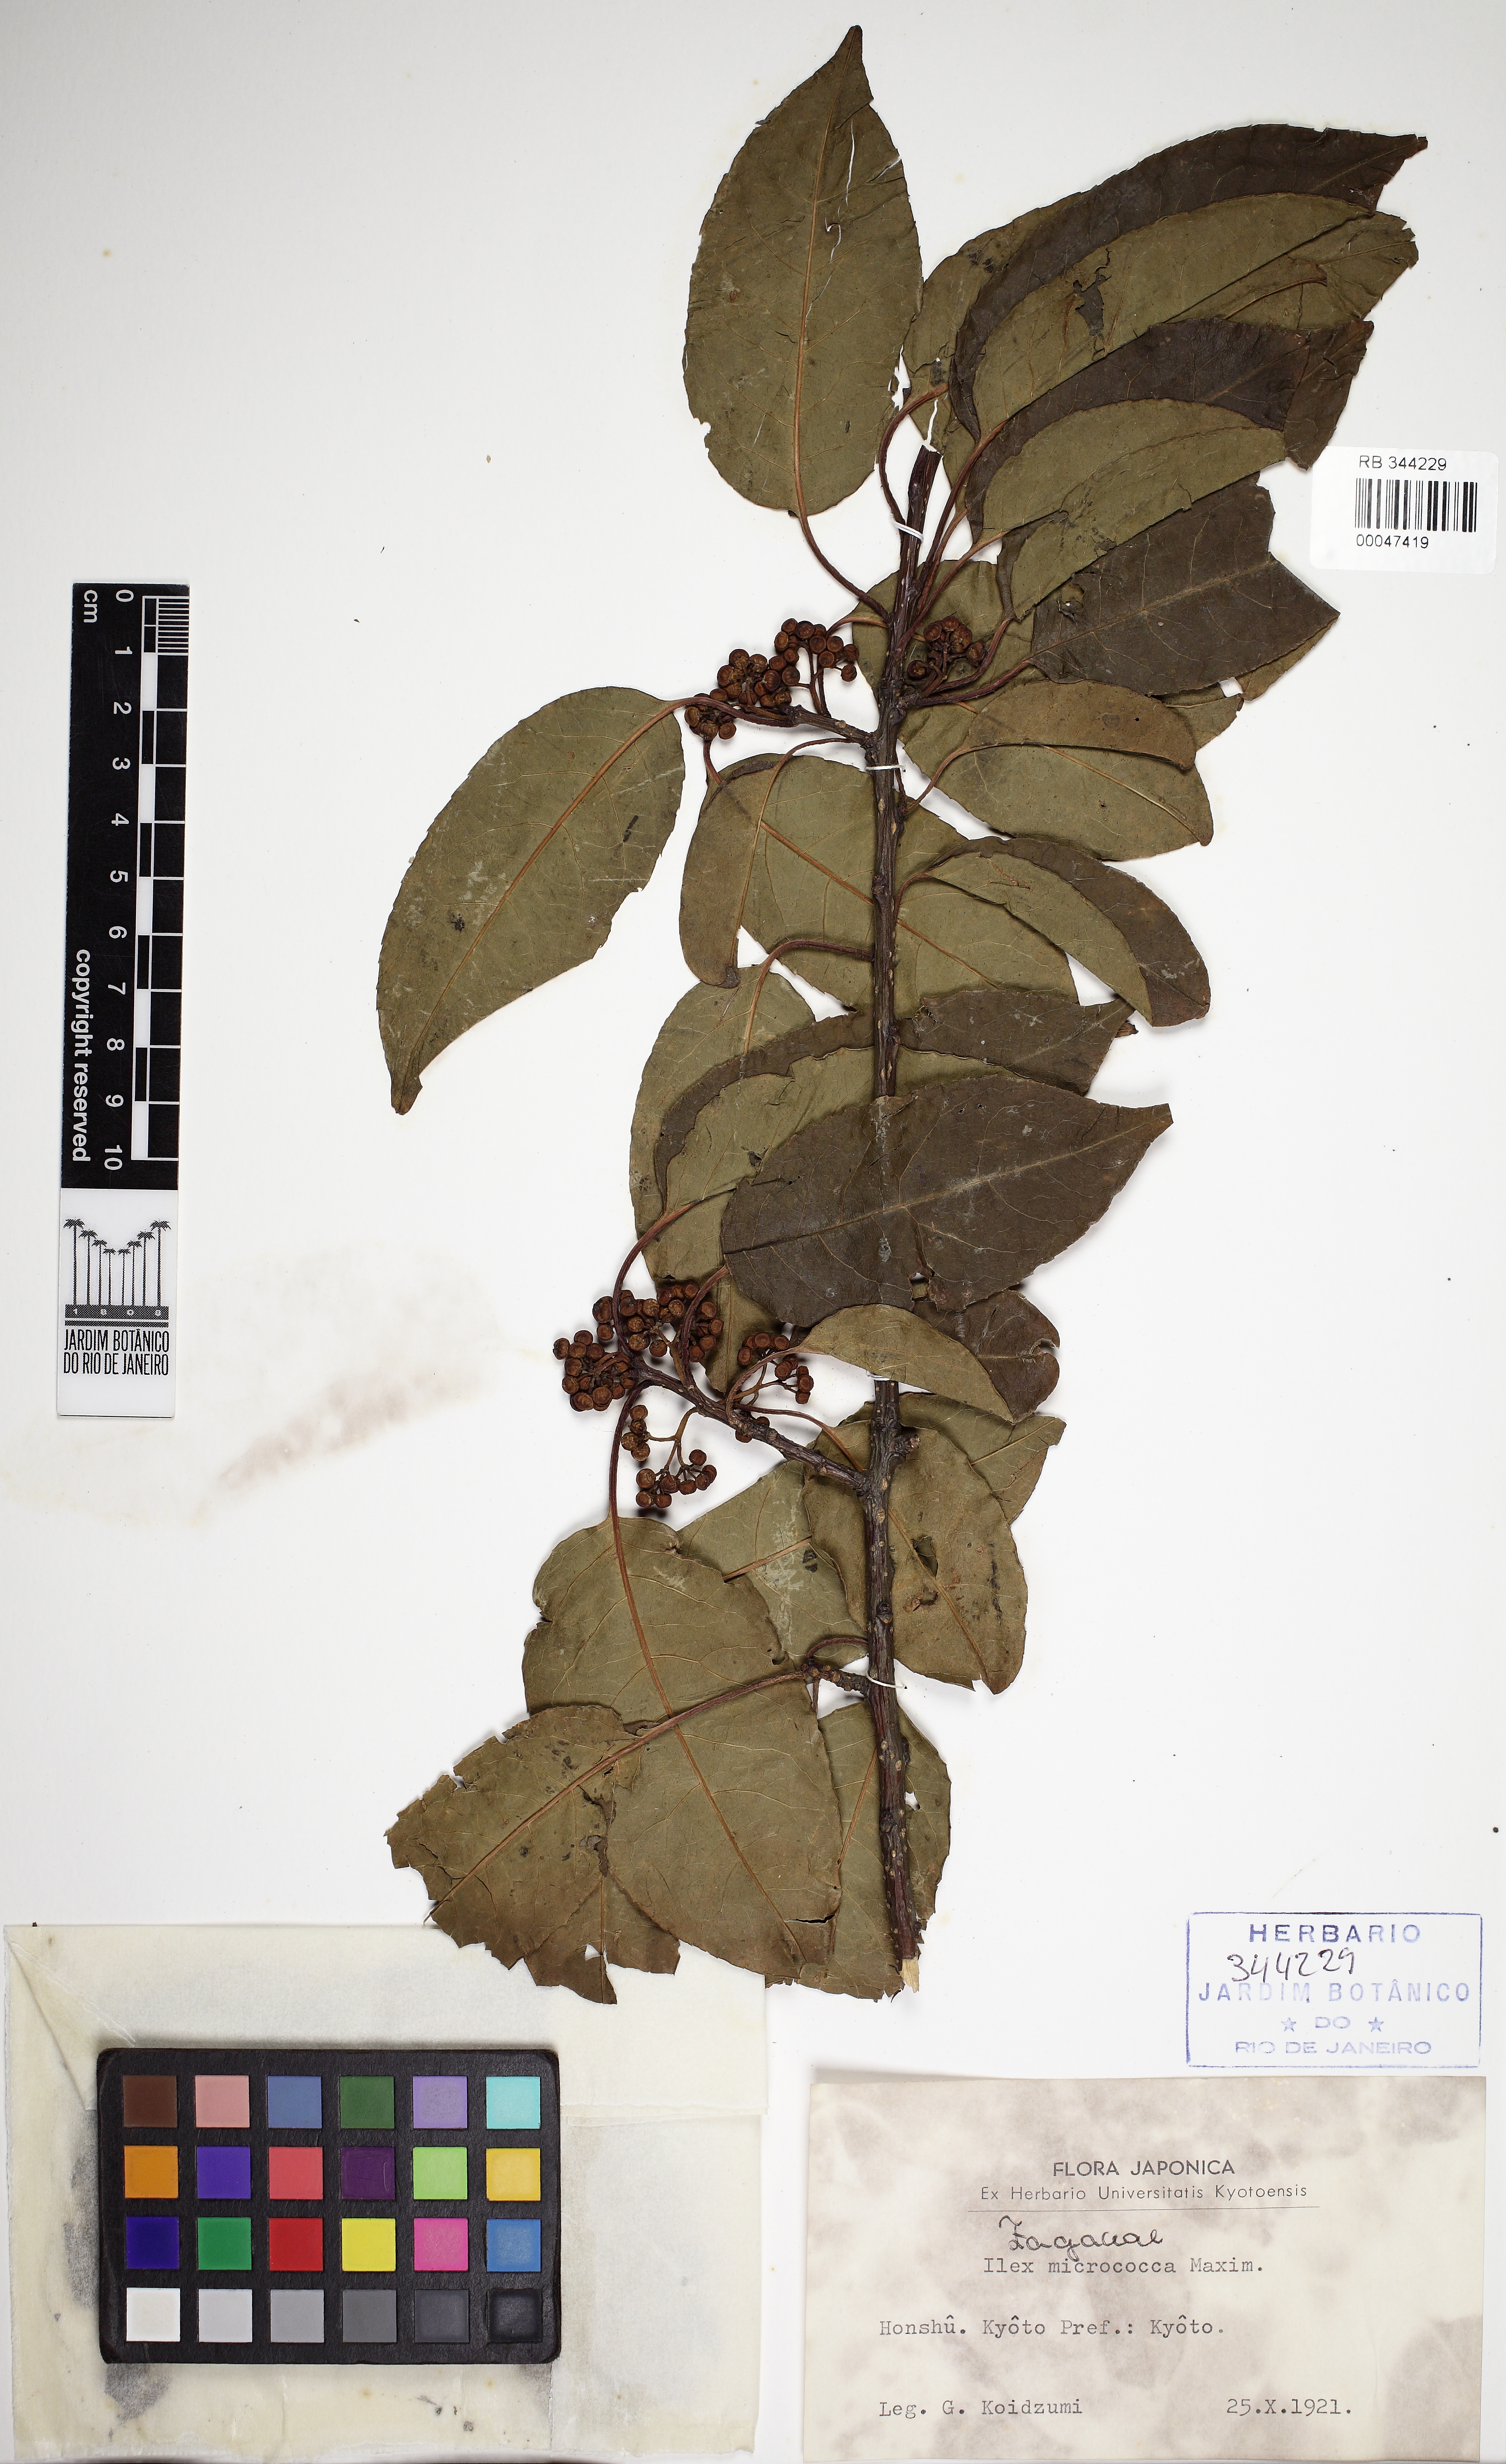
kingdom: Plantae
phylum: Tracheophyta
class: Magnoliopsida
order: Aquifoliales
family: Aquifoliaceae
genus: Ilex
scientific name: Ilex micrococca
